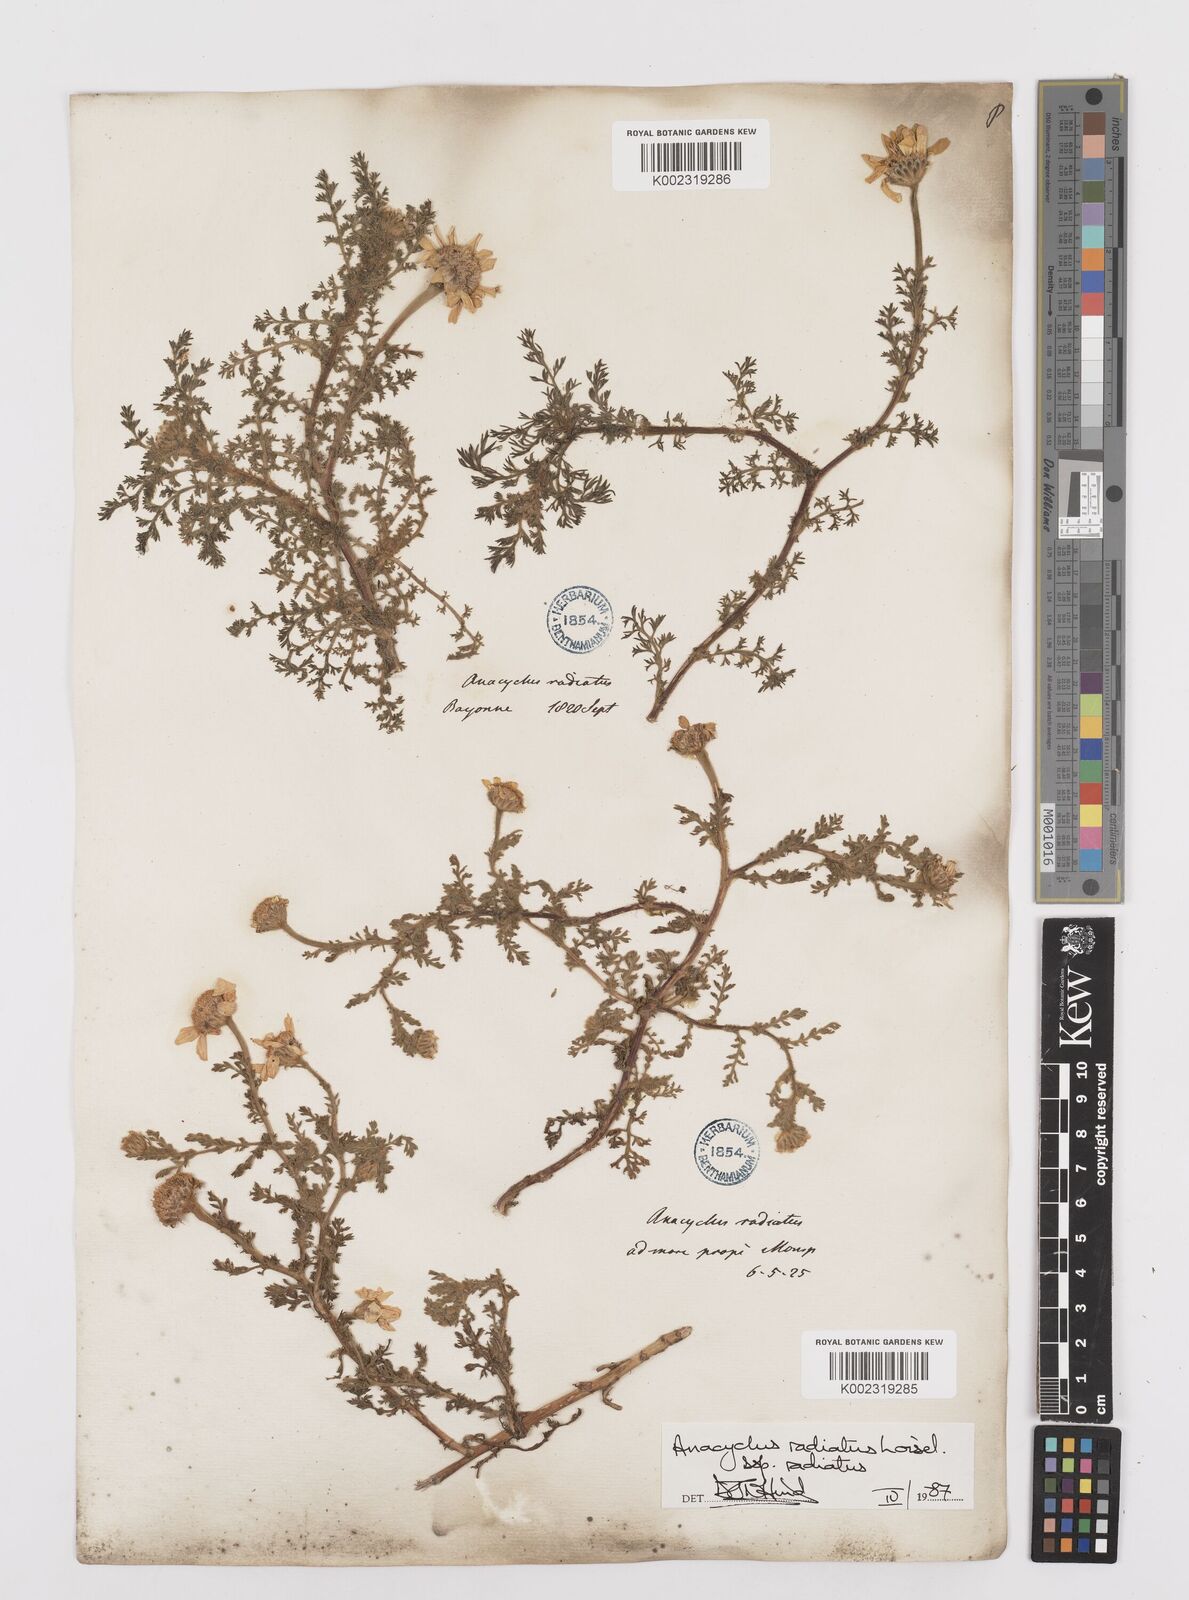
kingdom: Plantae
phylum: Tracheophyta
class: Magnoliopsida
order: Asterales
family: Asteraceae
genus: Anacyclus
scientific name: Anacyclus radiatus
